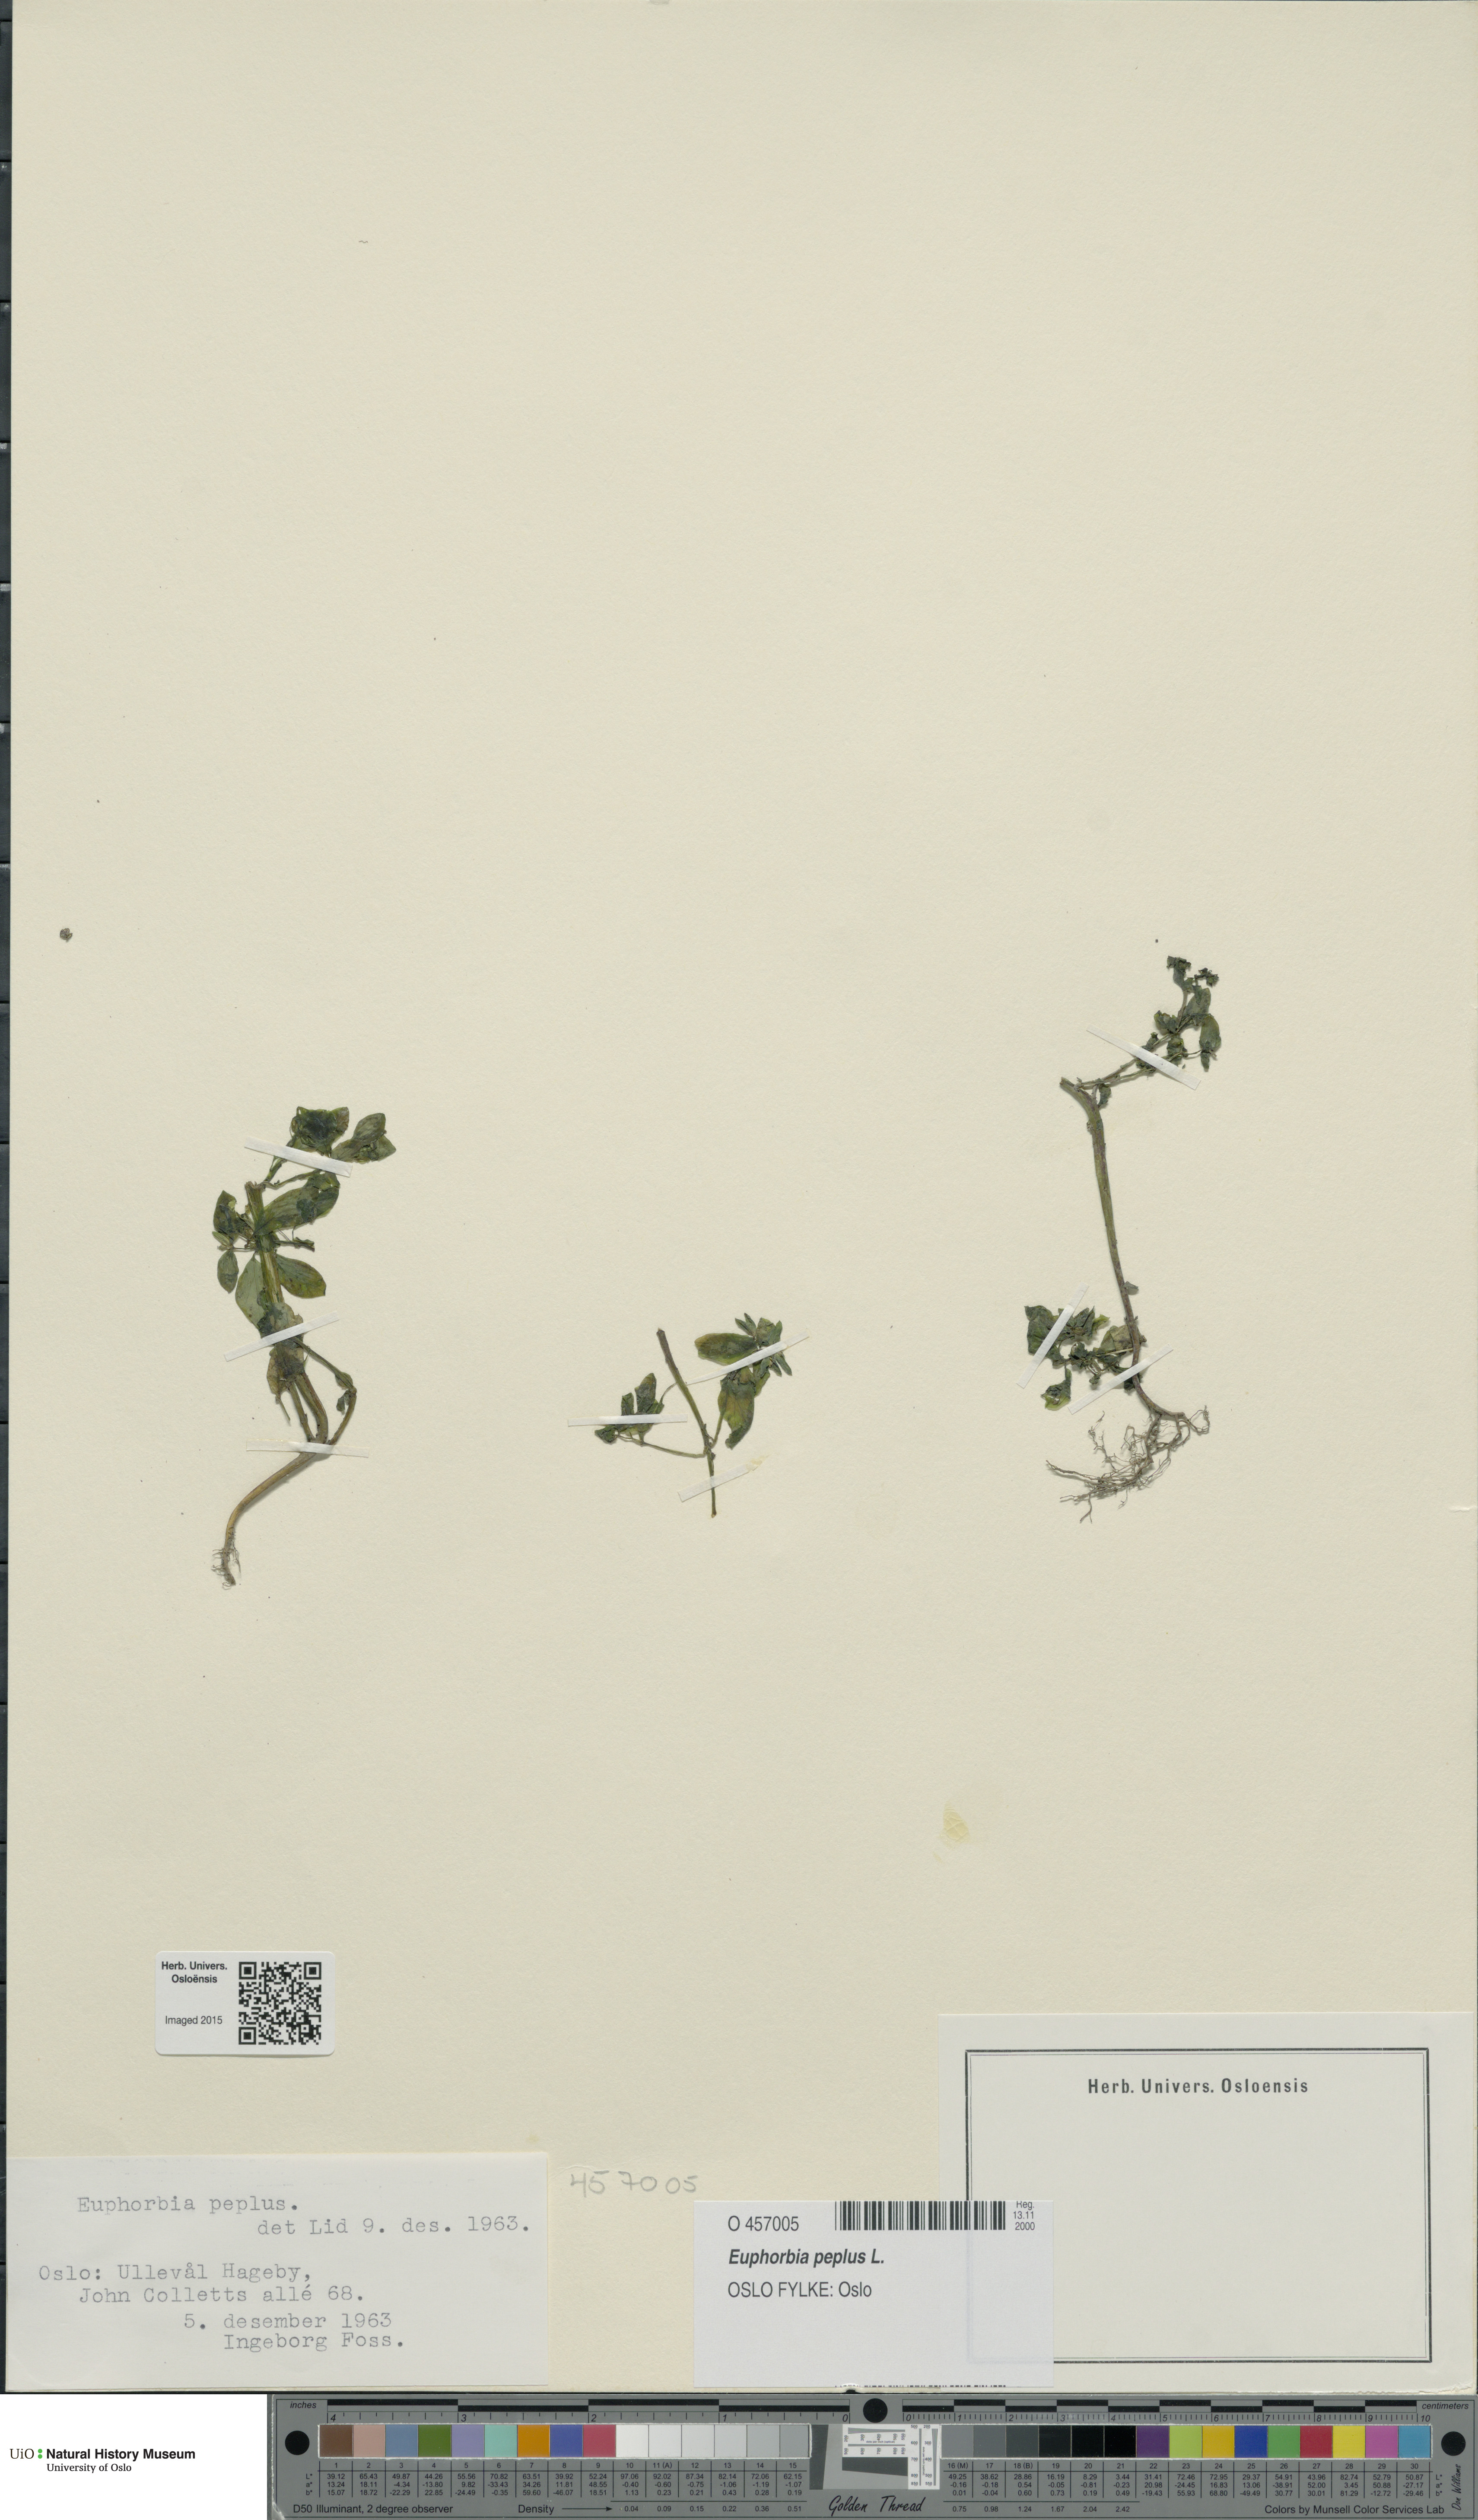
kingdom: Plantae
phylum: Tracheophyta
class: Magnoliopsida
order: Malpighiales
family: Euphorbiaceae
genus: Euphorbia
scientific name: Euphorbia peplus
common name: Petty spurge
